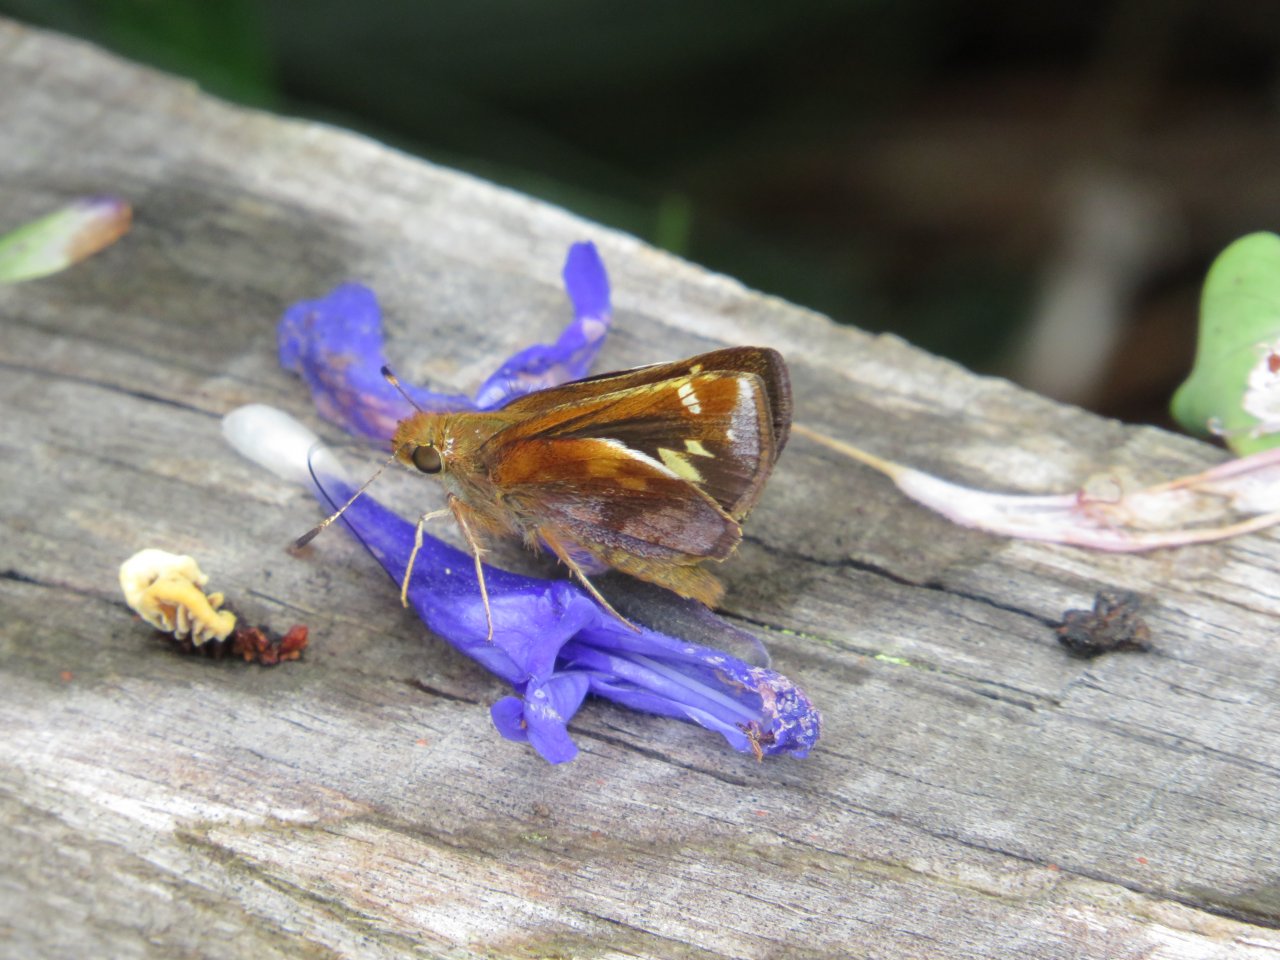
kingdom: Animalia
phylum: Arthropoda
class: Insecta
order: Lepidoptera
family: Hesperiidae
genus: Lon
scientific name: Lon zabulon
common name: Zabulon Skipper
